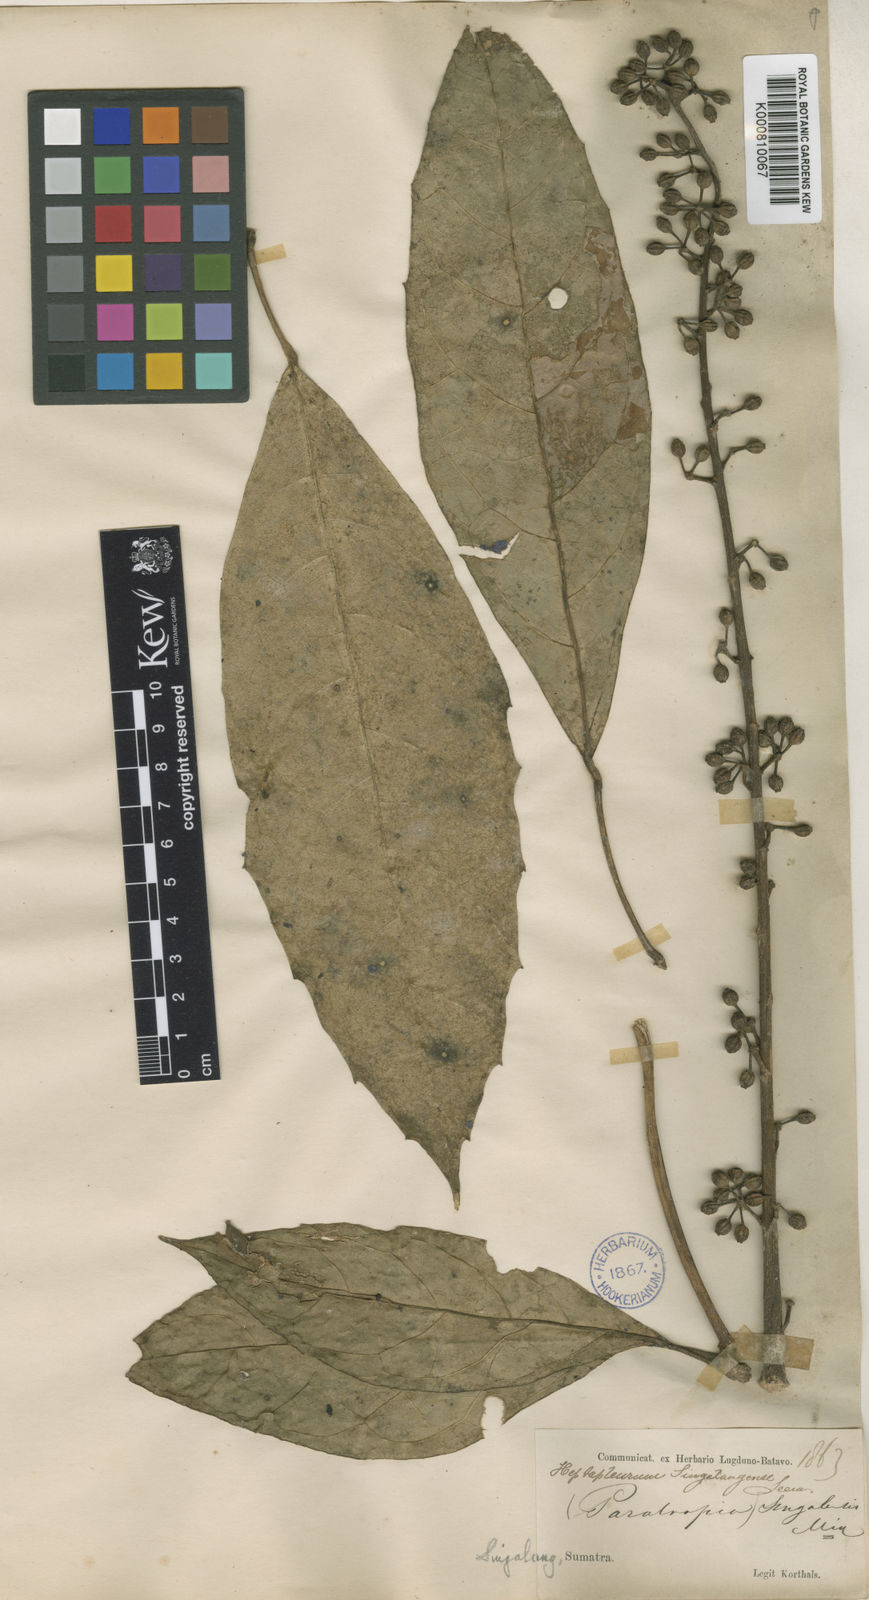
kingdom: Plantae
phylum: Tracheophyta
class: Magnoliopsida
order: Apiales
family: Araliaceae
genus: Heptapleurum
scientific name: Heptapleurum singalangense
